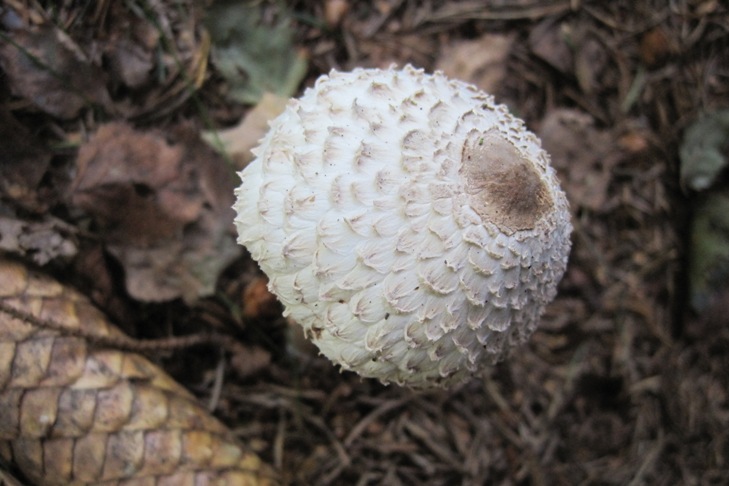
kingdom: Fungi
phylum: Basidiomycota
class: Agaricomycetes
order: Agaricales
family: Agaricaceae
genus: Leucoagaricus
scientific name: Leucoagaricus nympharum
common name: gran-silkehat
